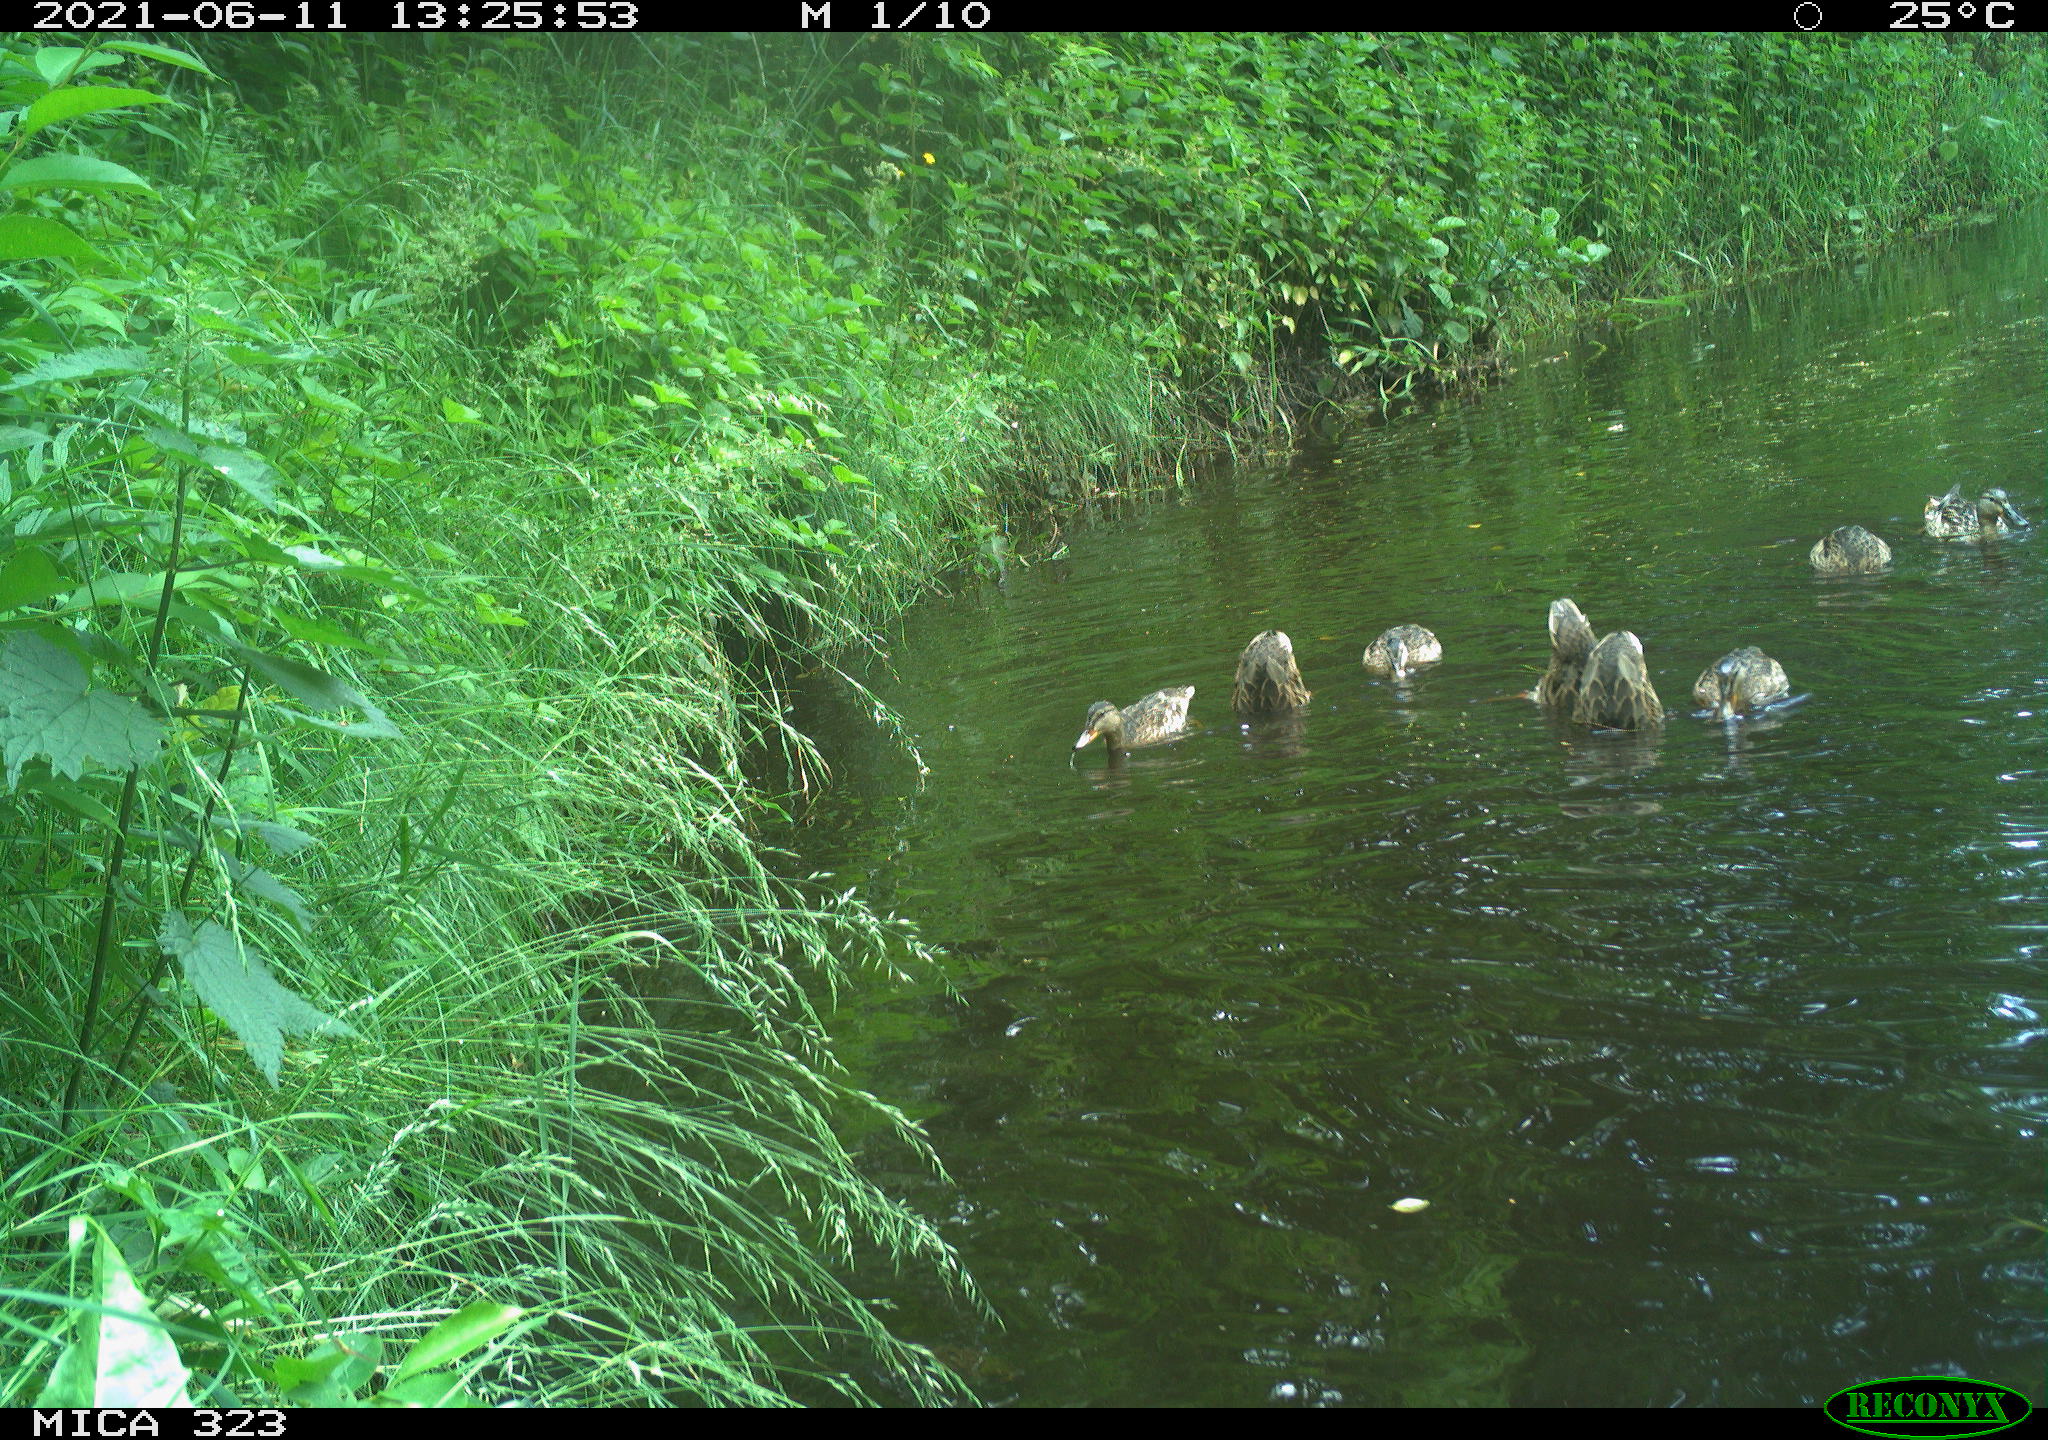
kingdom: Animalia
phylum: Chordata
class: Aves
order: Anseriformes
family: Anatidae
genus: Anas
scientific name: Anas platyrhynchos
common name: Mallard
